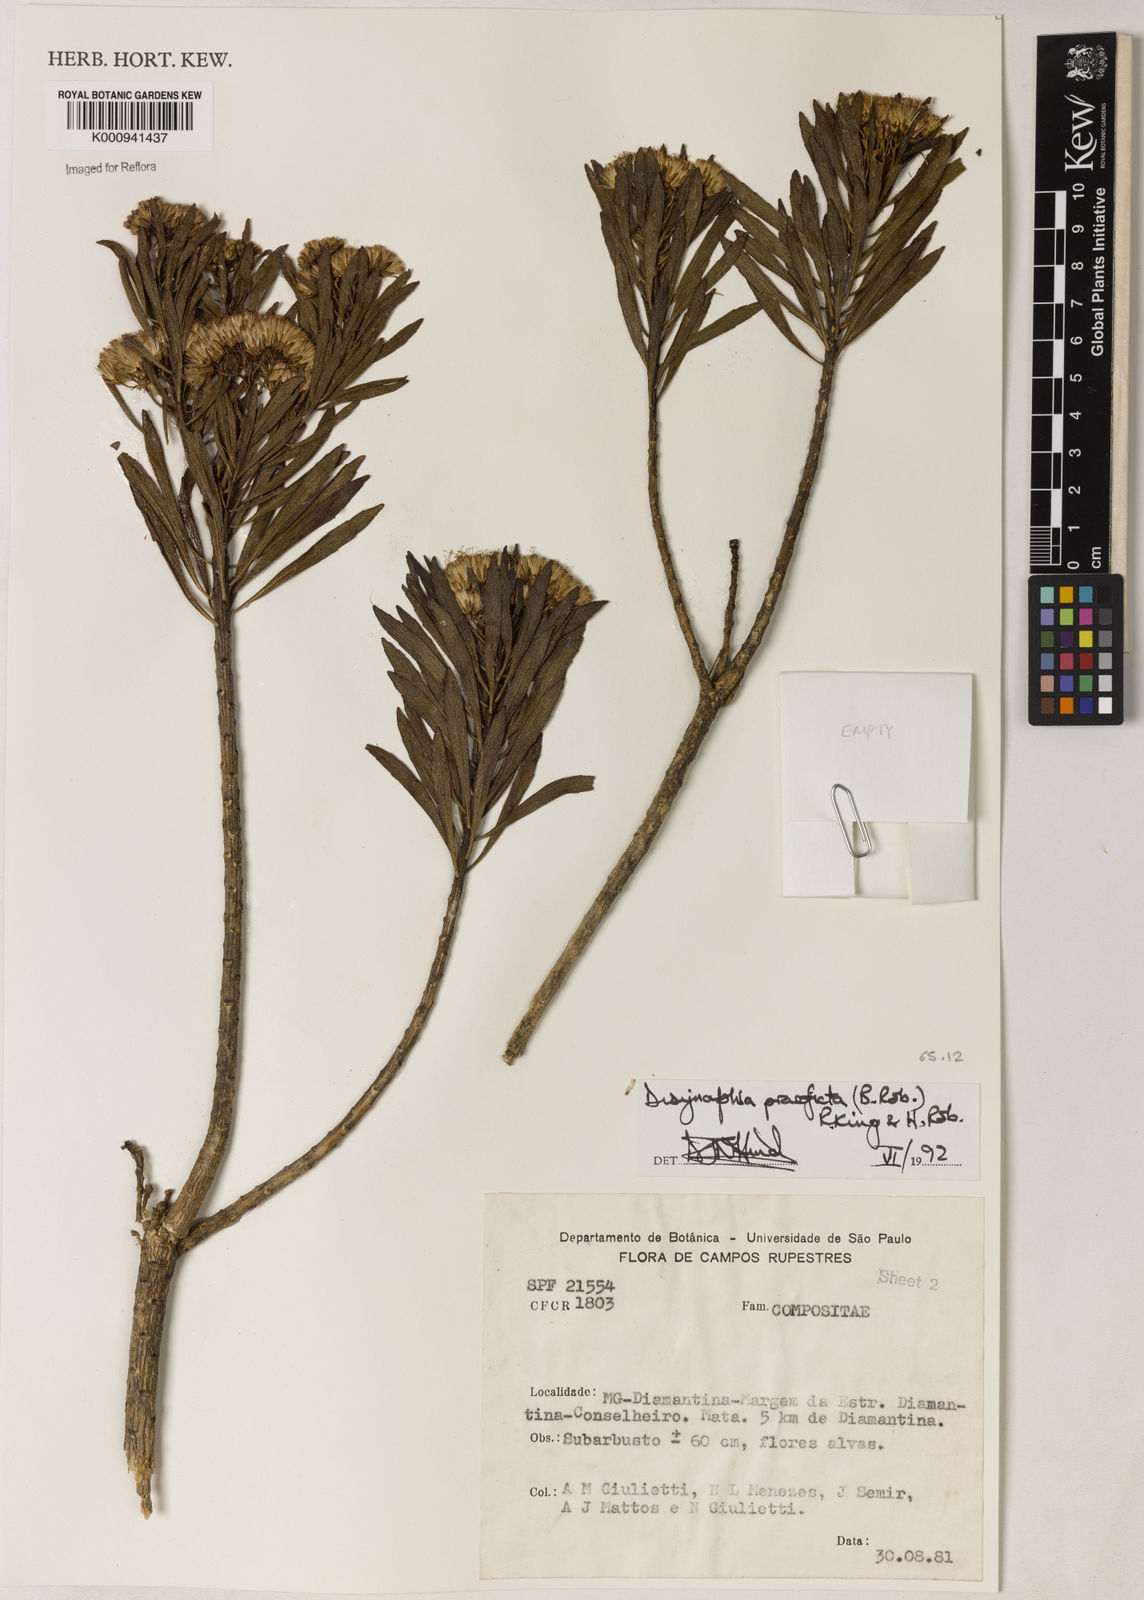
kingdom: Plantae
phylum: Tracheophyta
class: Magnoliopsida
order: Asterales
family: Asteraceae
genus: Disynaphia
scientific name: Disynaphia praeficta
